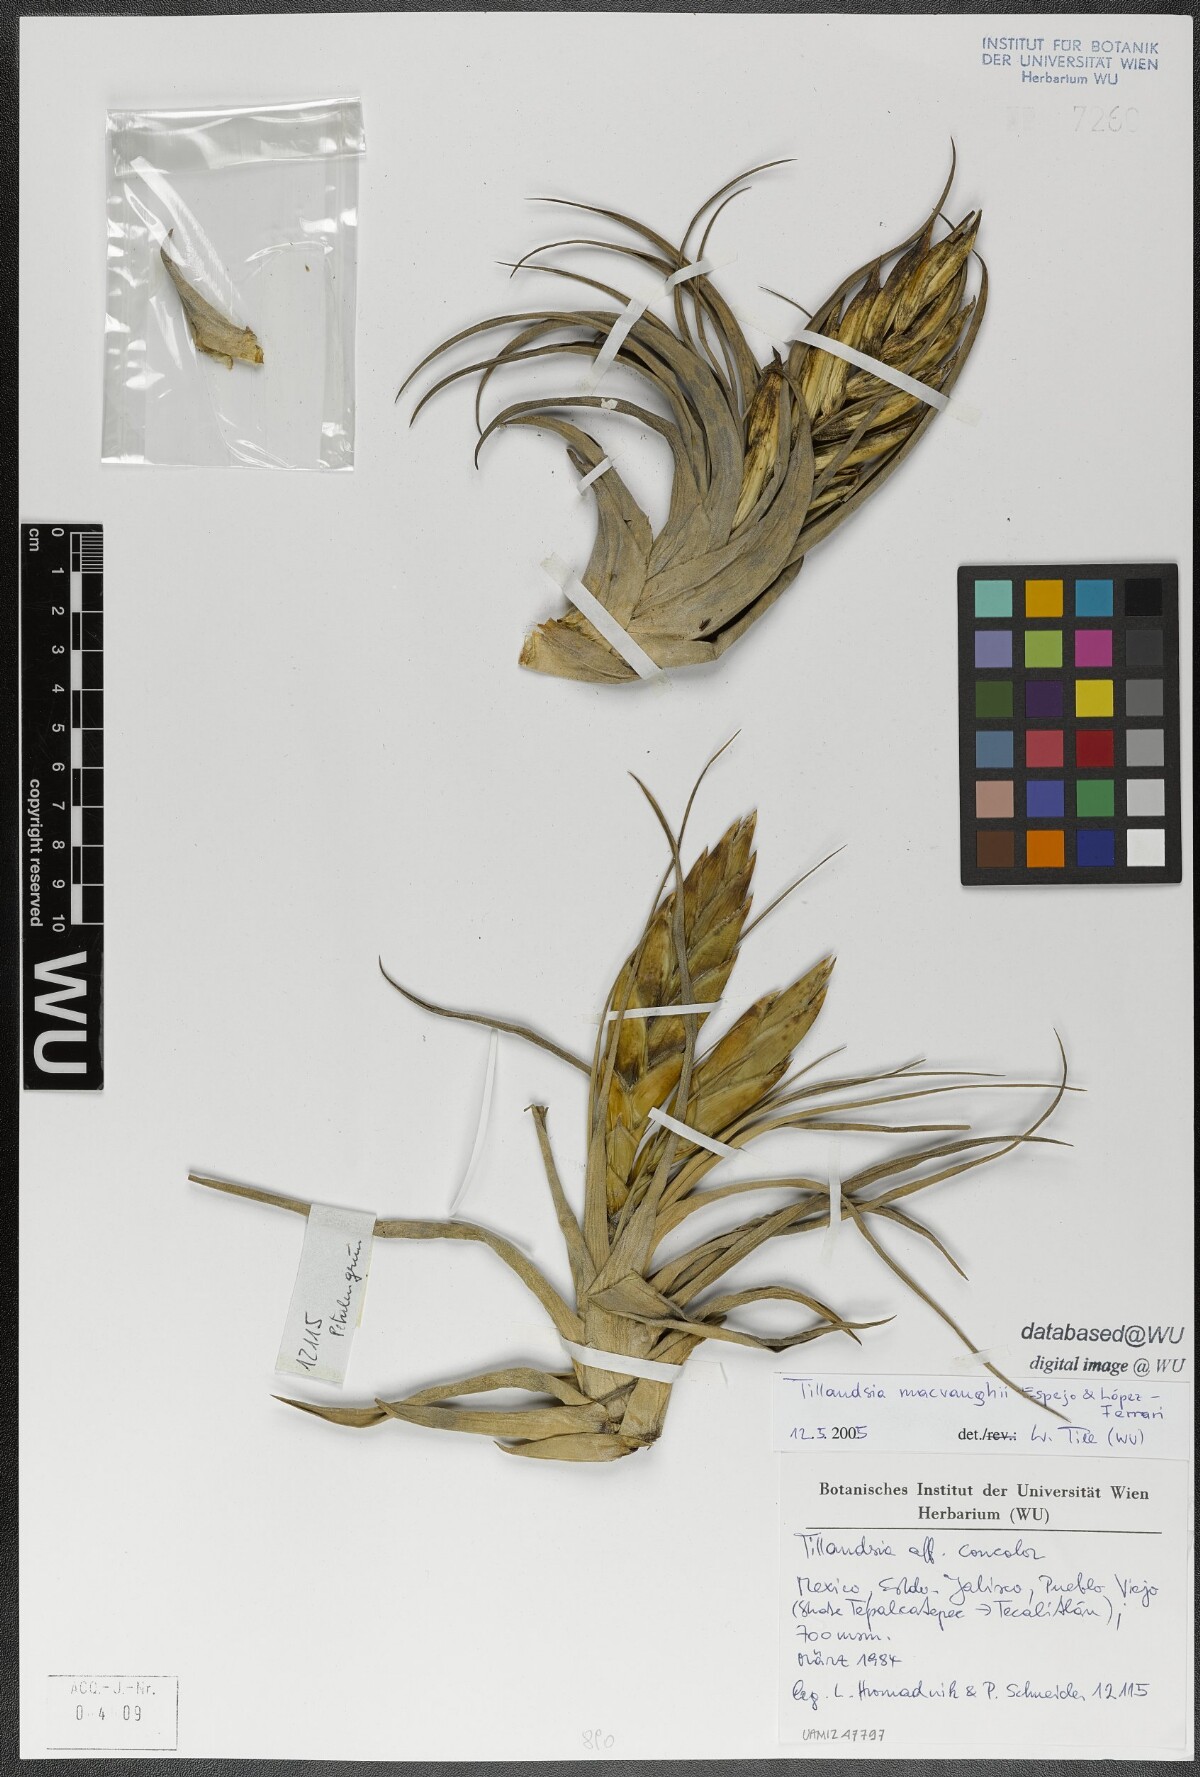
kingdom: Plantae
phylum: Tracheophyta
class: Liliopsida
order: Poales
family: Bromeliaceae
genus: Tillandsia
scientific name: Tillandsia macvaughii
